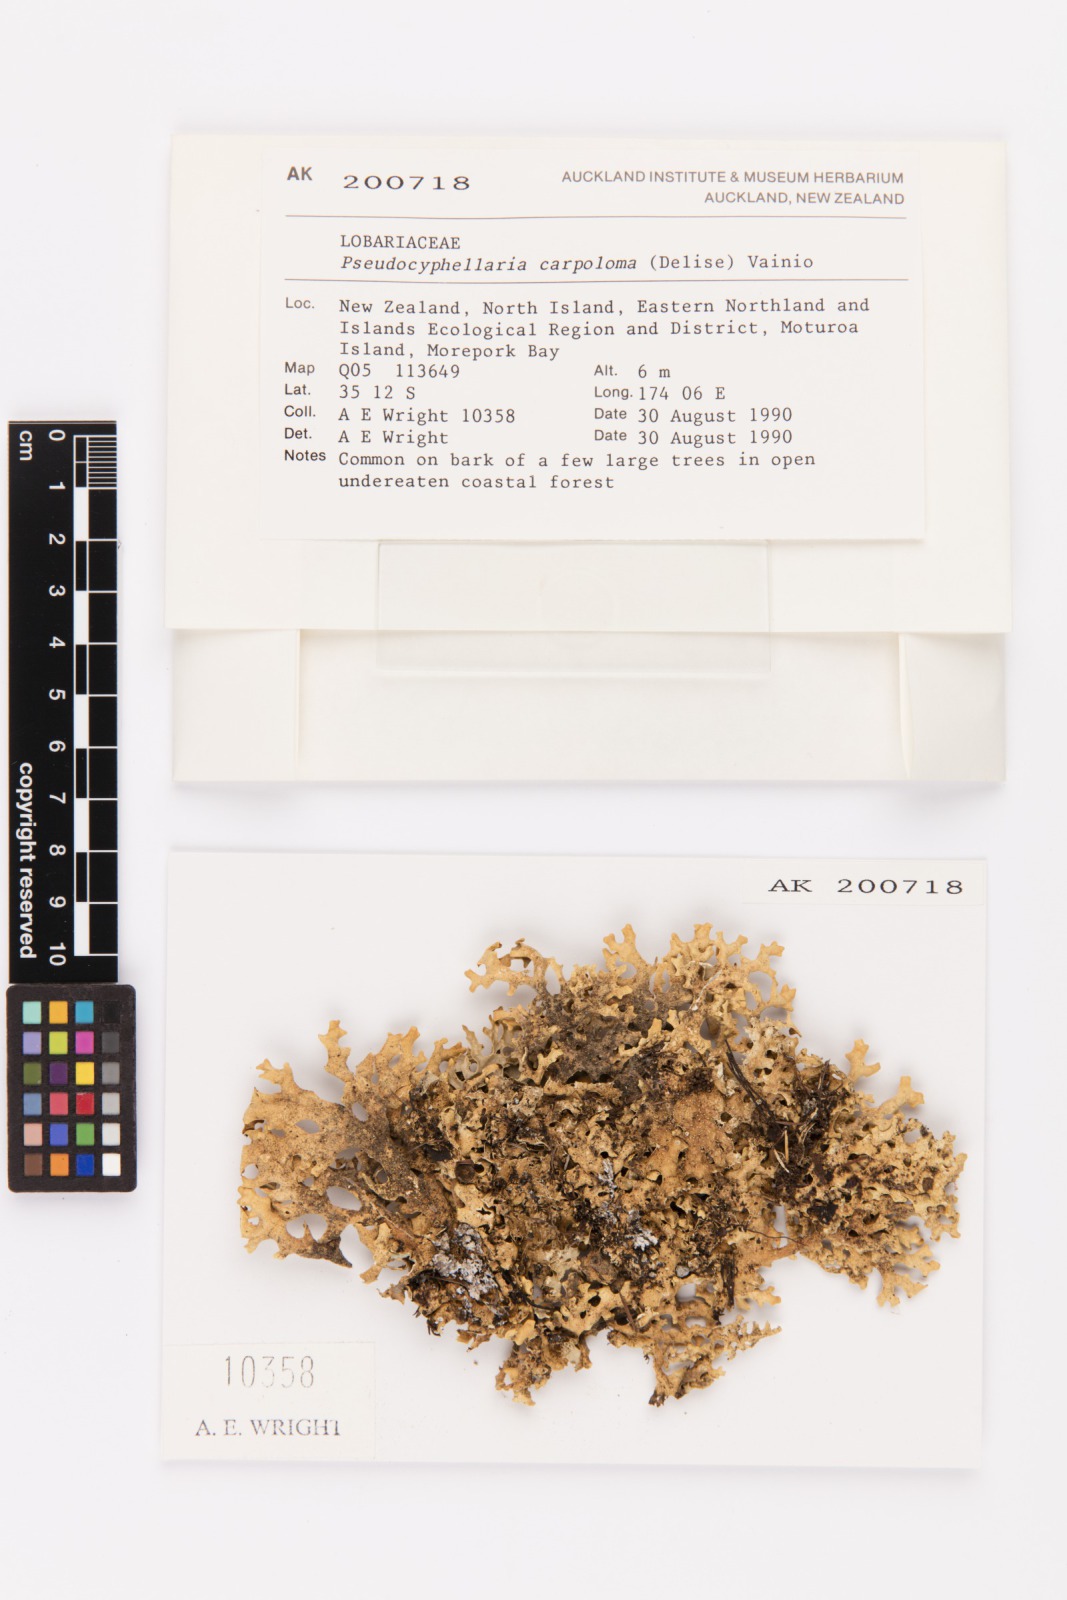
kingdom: Fungi
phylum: Ascomycota
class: Lecanoromycetes
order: Peltigerales
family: Lobariaceae
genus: Pseudocyphellaria
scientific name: Pseudocyphellaria carpoloma
